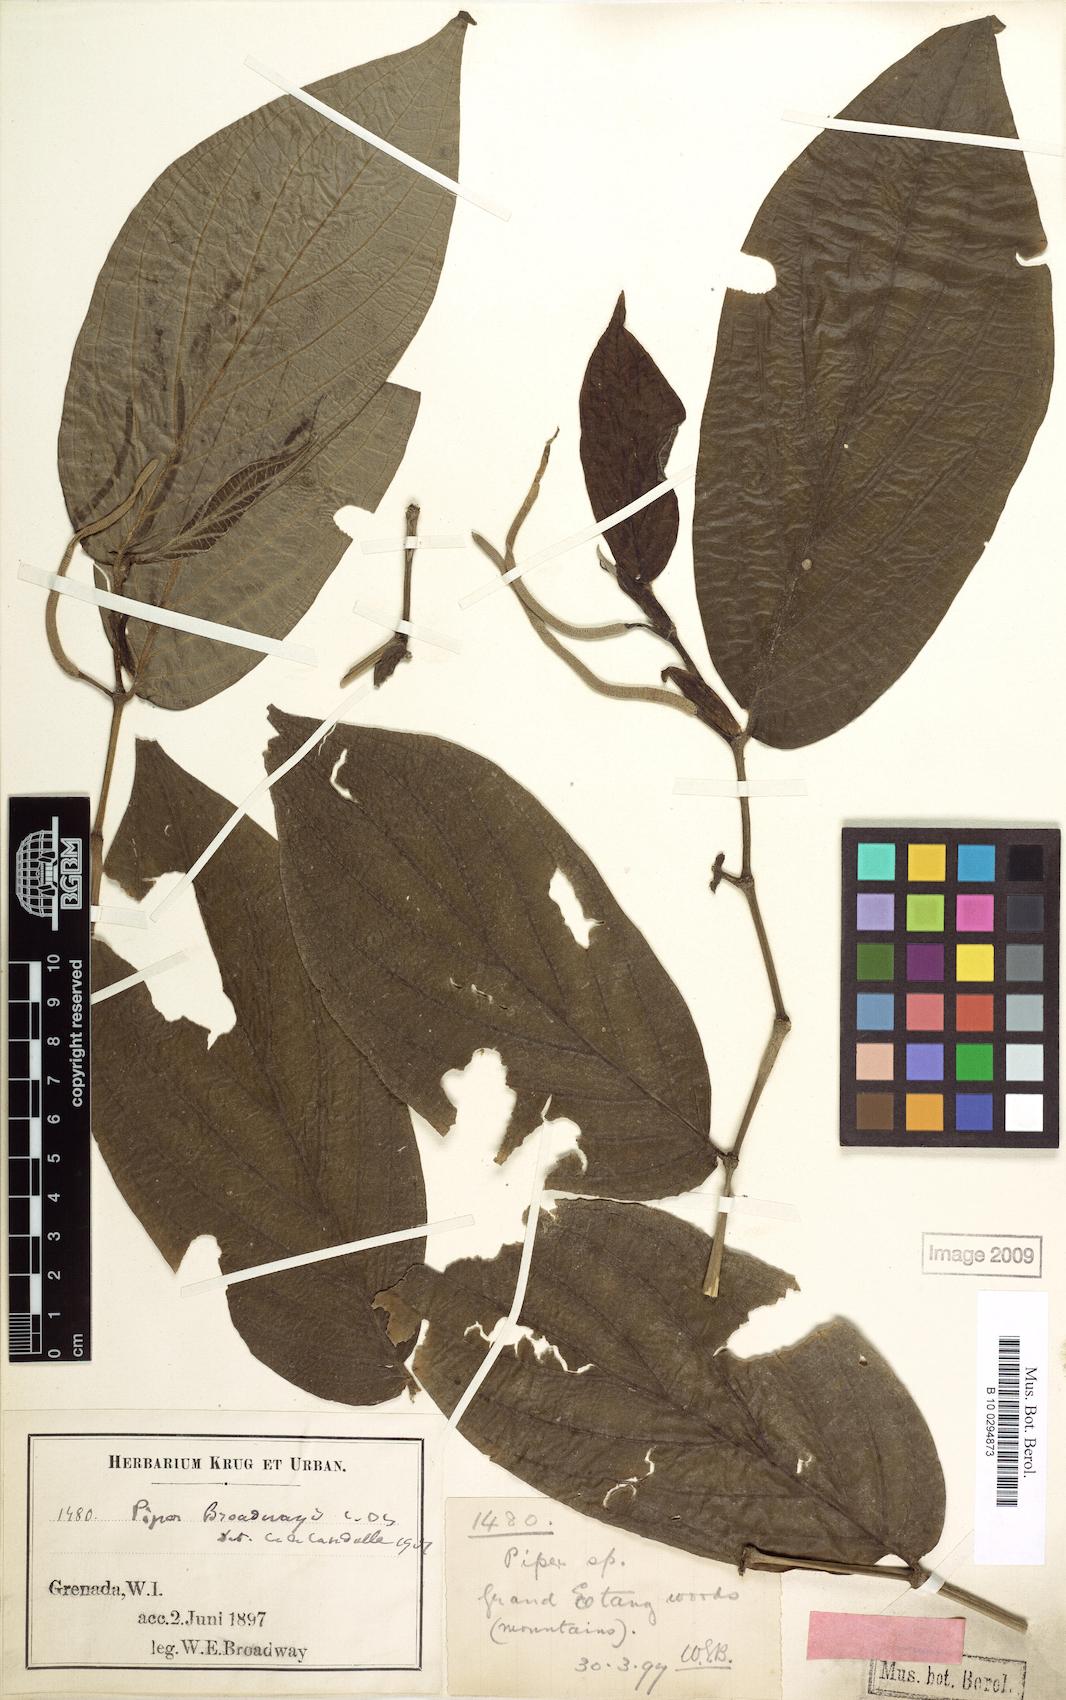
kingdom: Plantae
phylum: Tracheophyta
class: Magnoliopsida
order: Piperales
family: Piperaceae
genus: Piper
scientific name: Piper dussii
